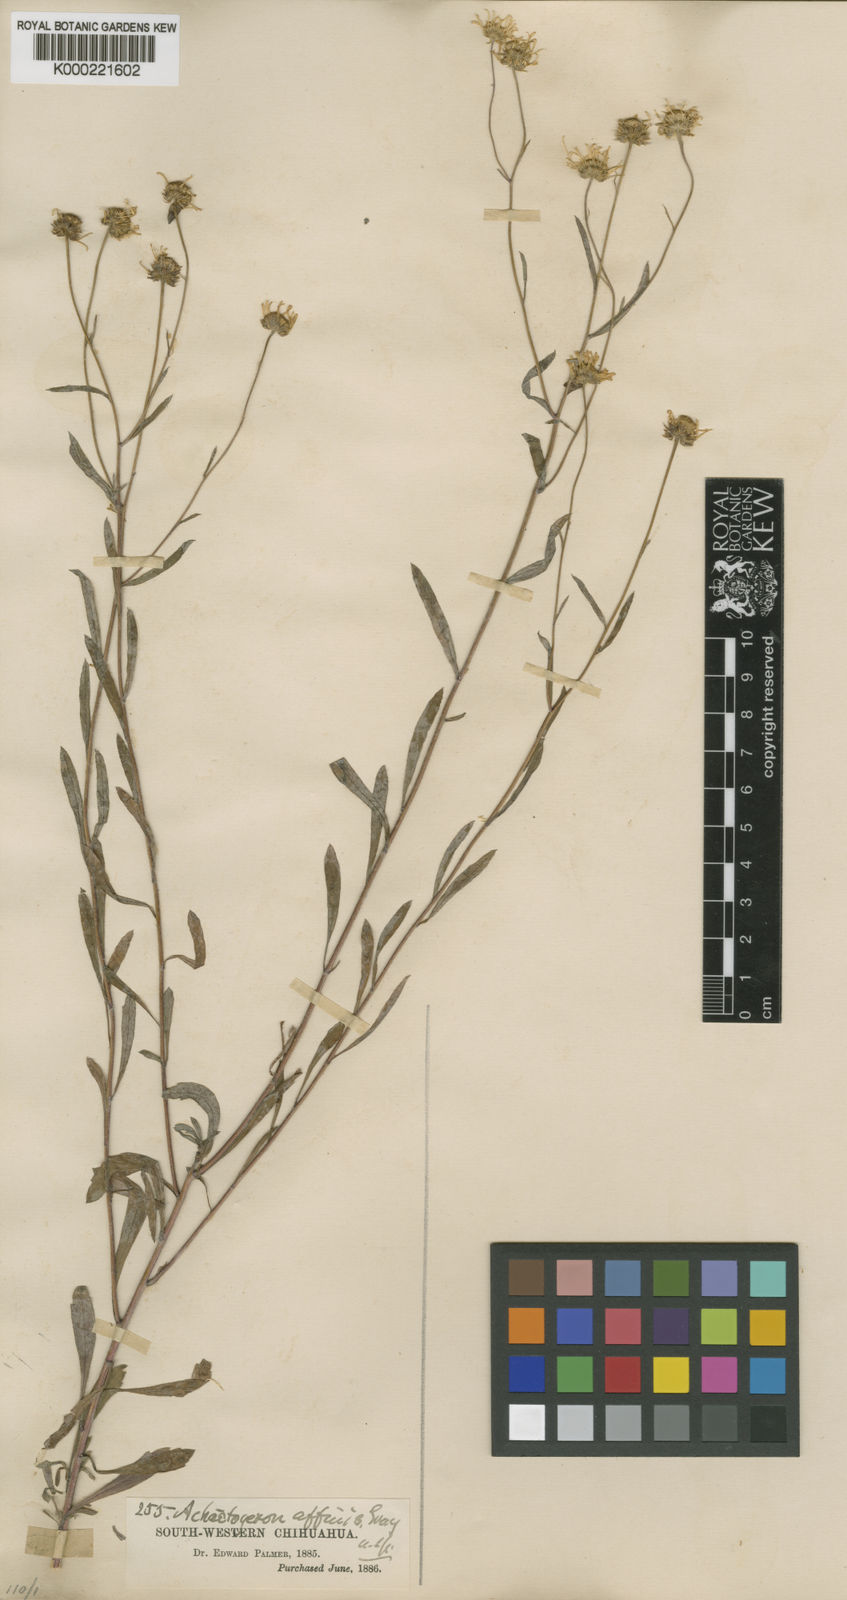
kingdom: Plantae
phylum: Tracheophyta
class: Magnoliopsida
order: Asterales
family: Asteraceae
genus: Erigeron
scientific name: Erigeron fraternus
